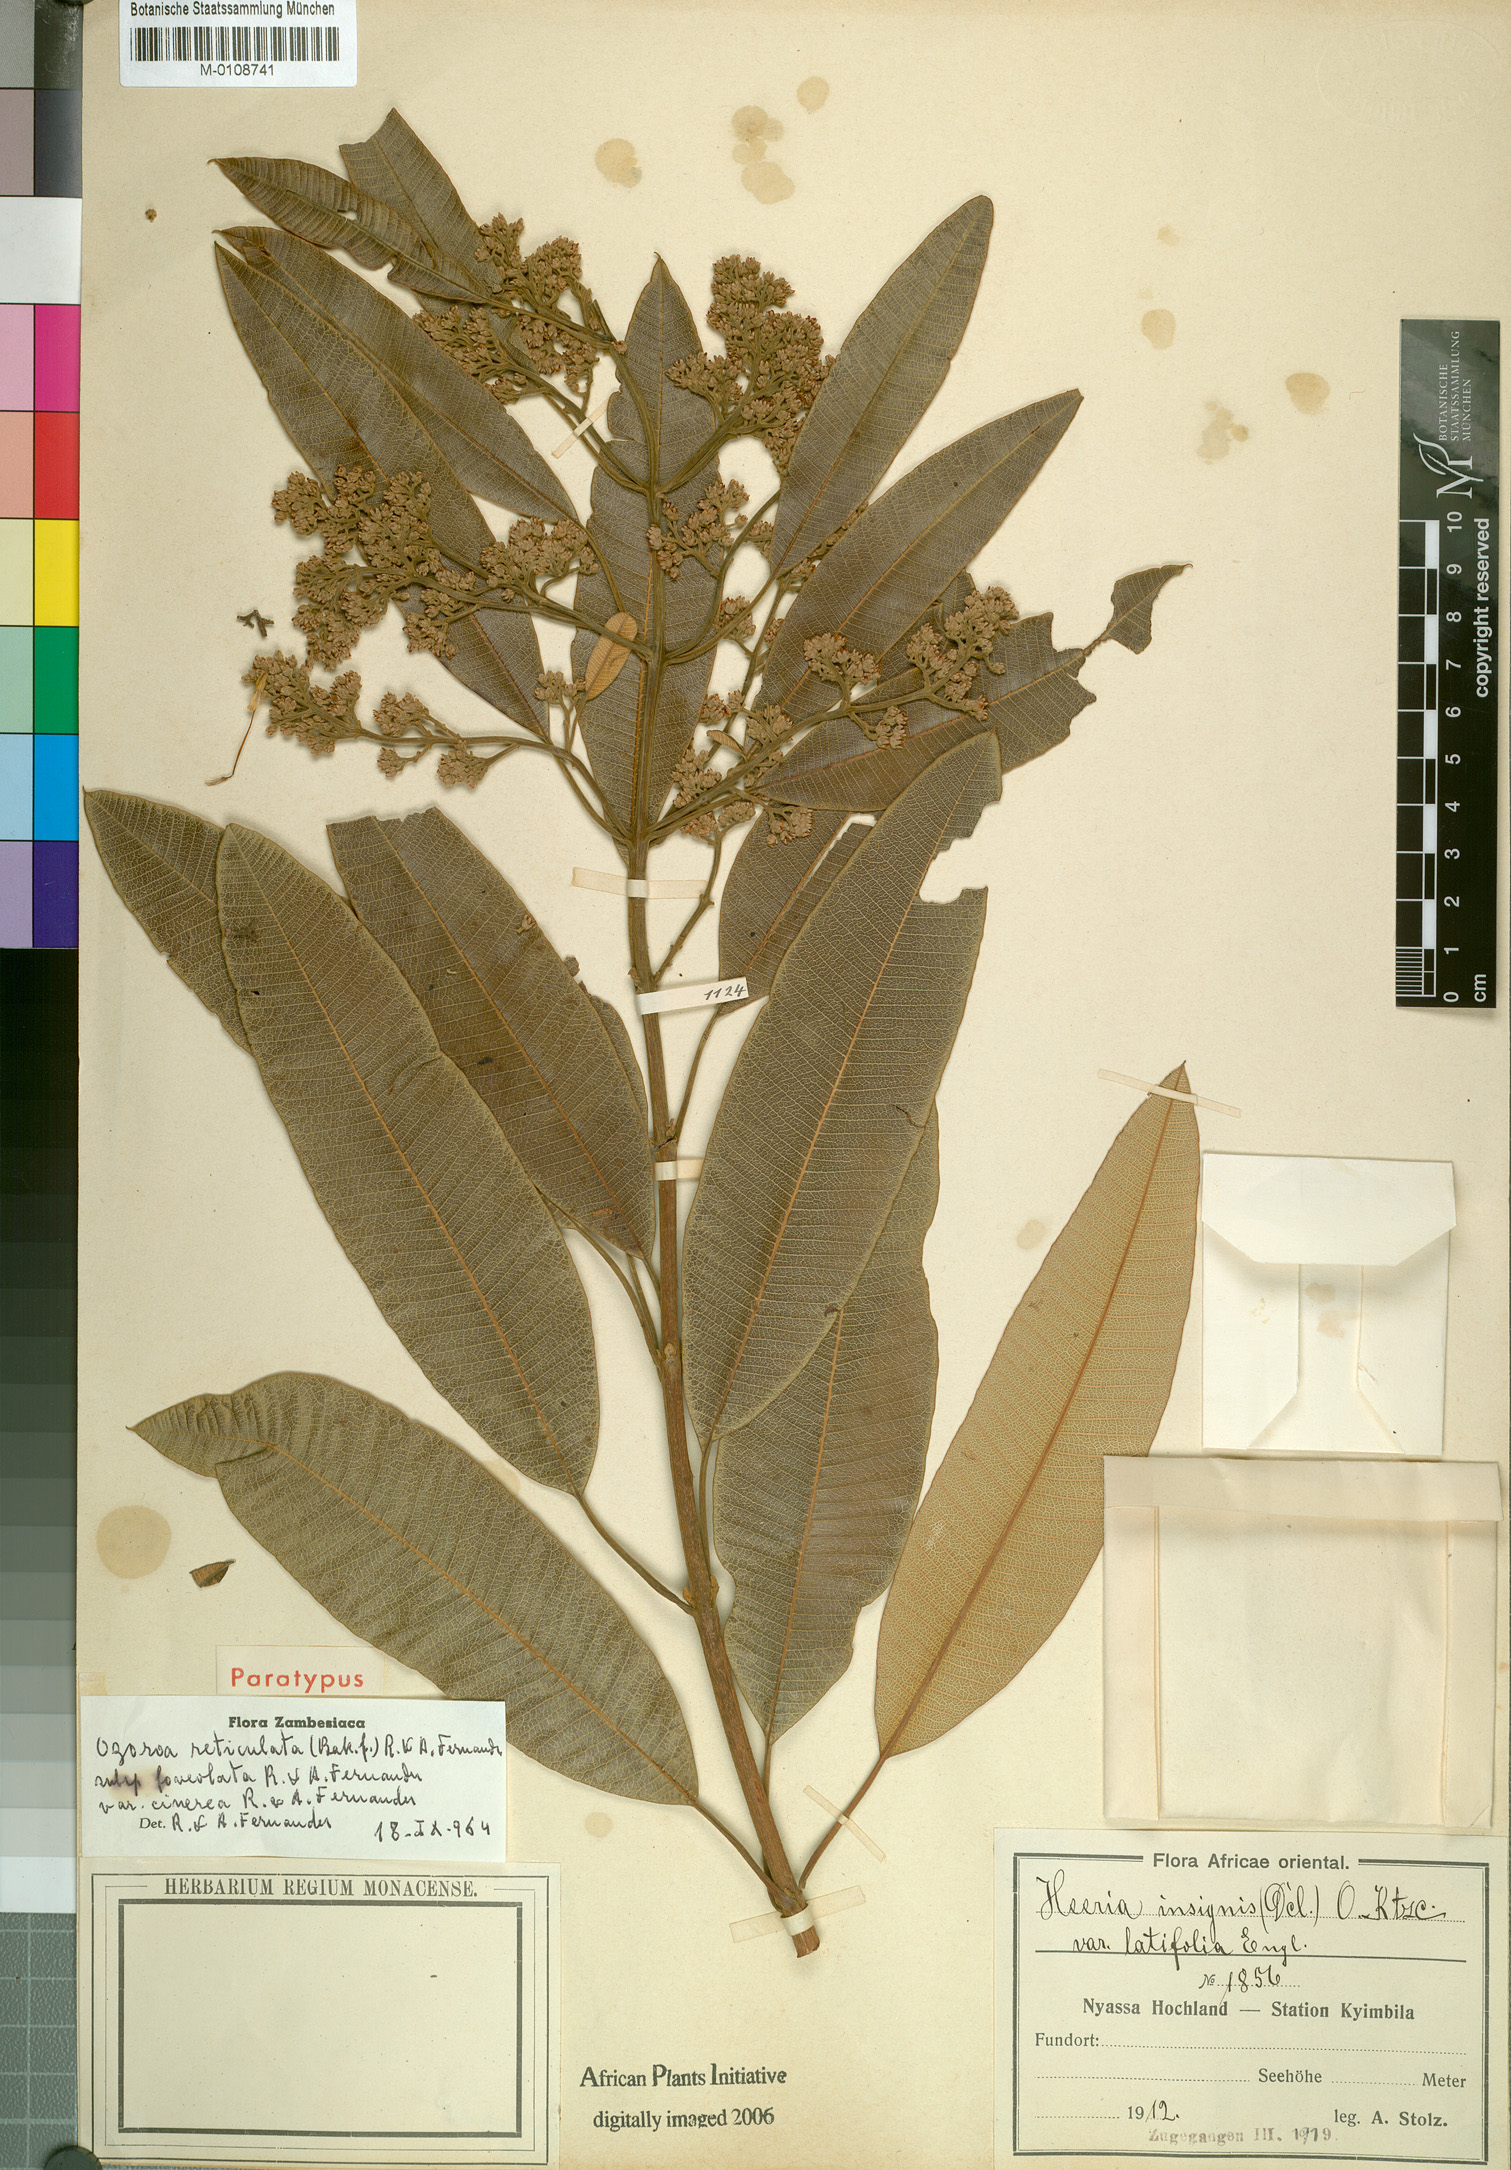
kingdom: Plantae
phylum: Tracheophyta
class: Magnoliopsida
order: Sapindales
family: Anacardiaceae
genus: Ozoroa
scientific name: Ozoroa insignis
